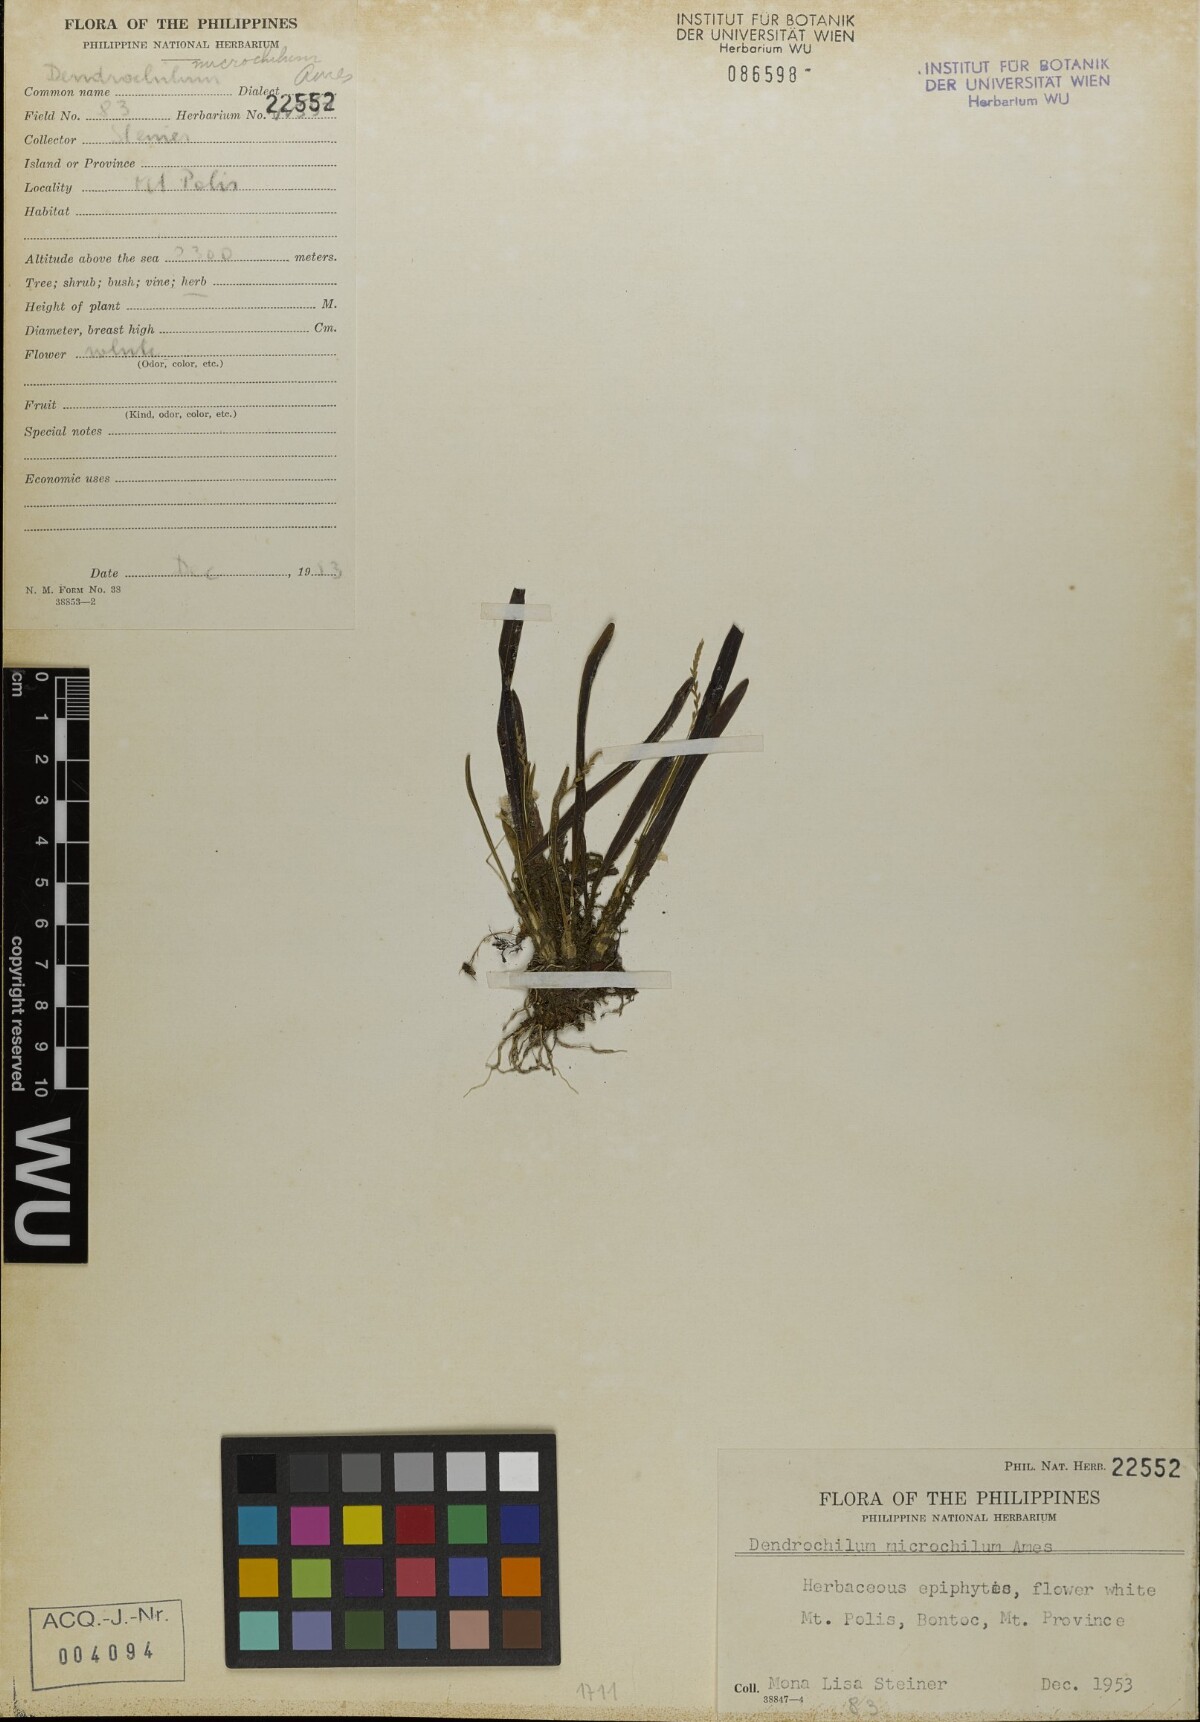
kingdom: Plantae
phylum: Tracheophyta
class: Liliopsida
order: Asparagales
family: Orchidaceae
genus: Coelogyne
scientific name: Coelogyne microchila
